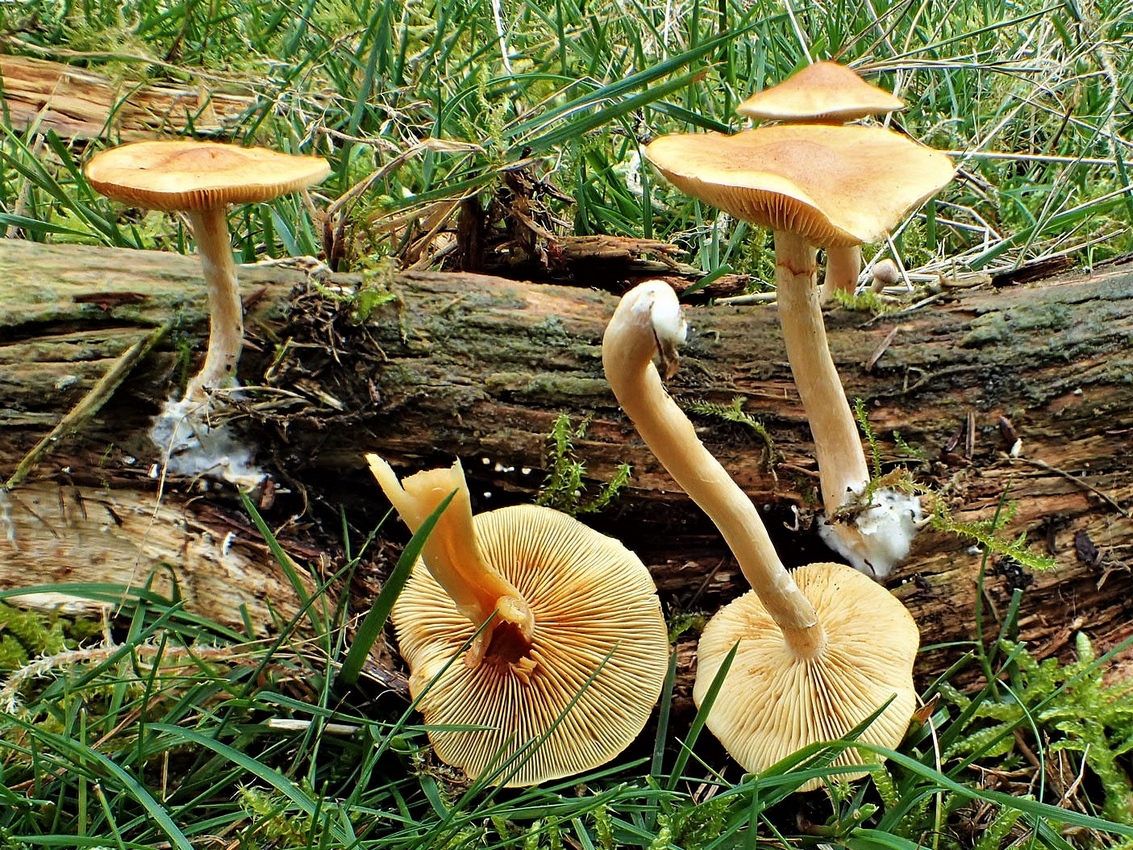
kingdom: Fungi
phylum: Basidiomycota
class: Agaricomycetes
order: Agaricales
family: Hymenogastraceae
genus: Gymnopilus
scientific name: Gymnopilus penetrans
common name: plettet flammehat
